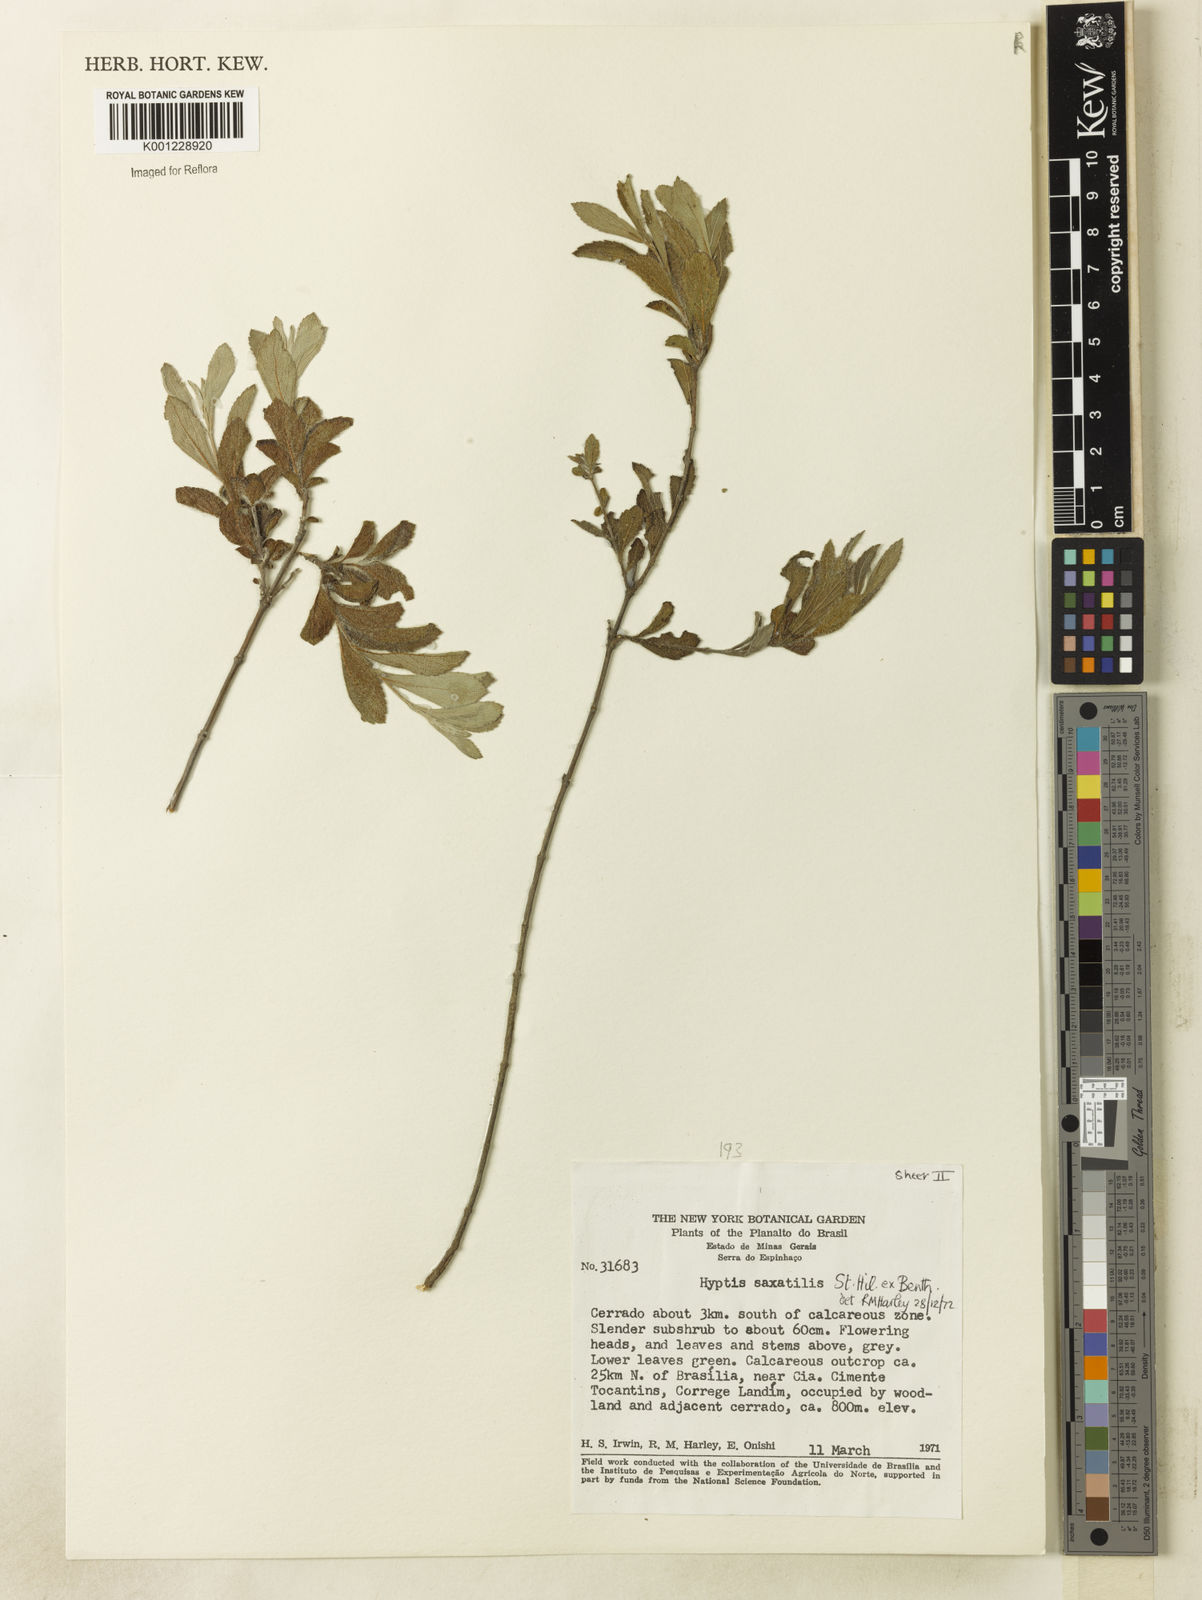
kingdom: Plantae
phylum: Tracheophyta
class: Magnoliopsida
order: Lamiales
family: Lamiaceae
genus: Hyptis
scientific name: Hyptis saxatilis
